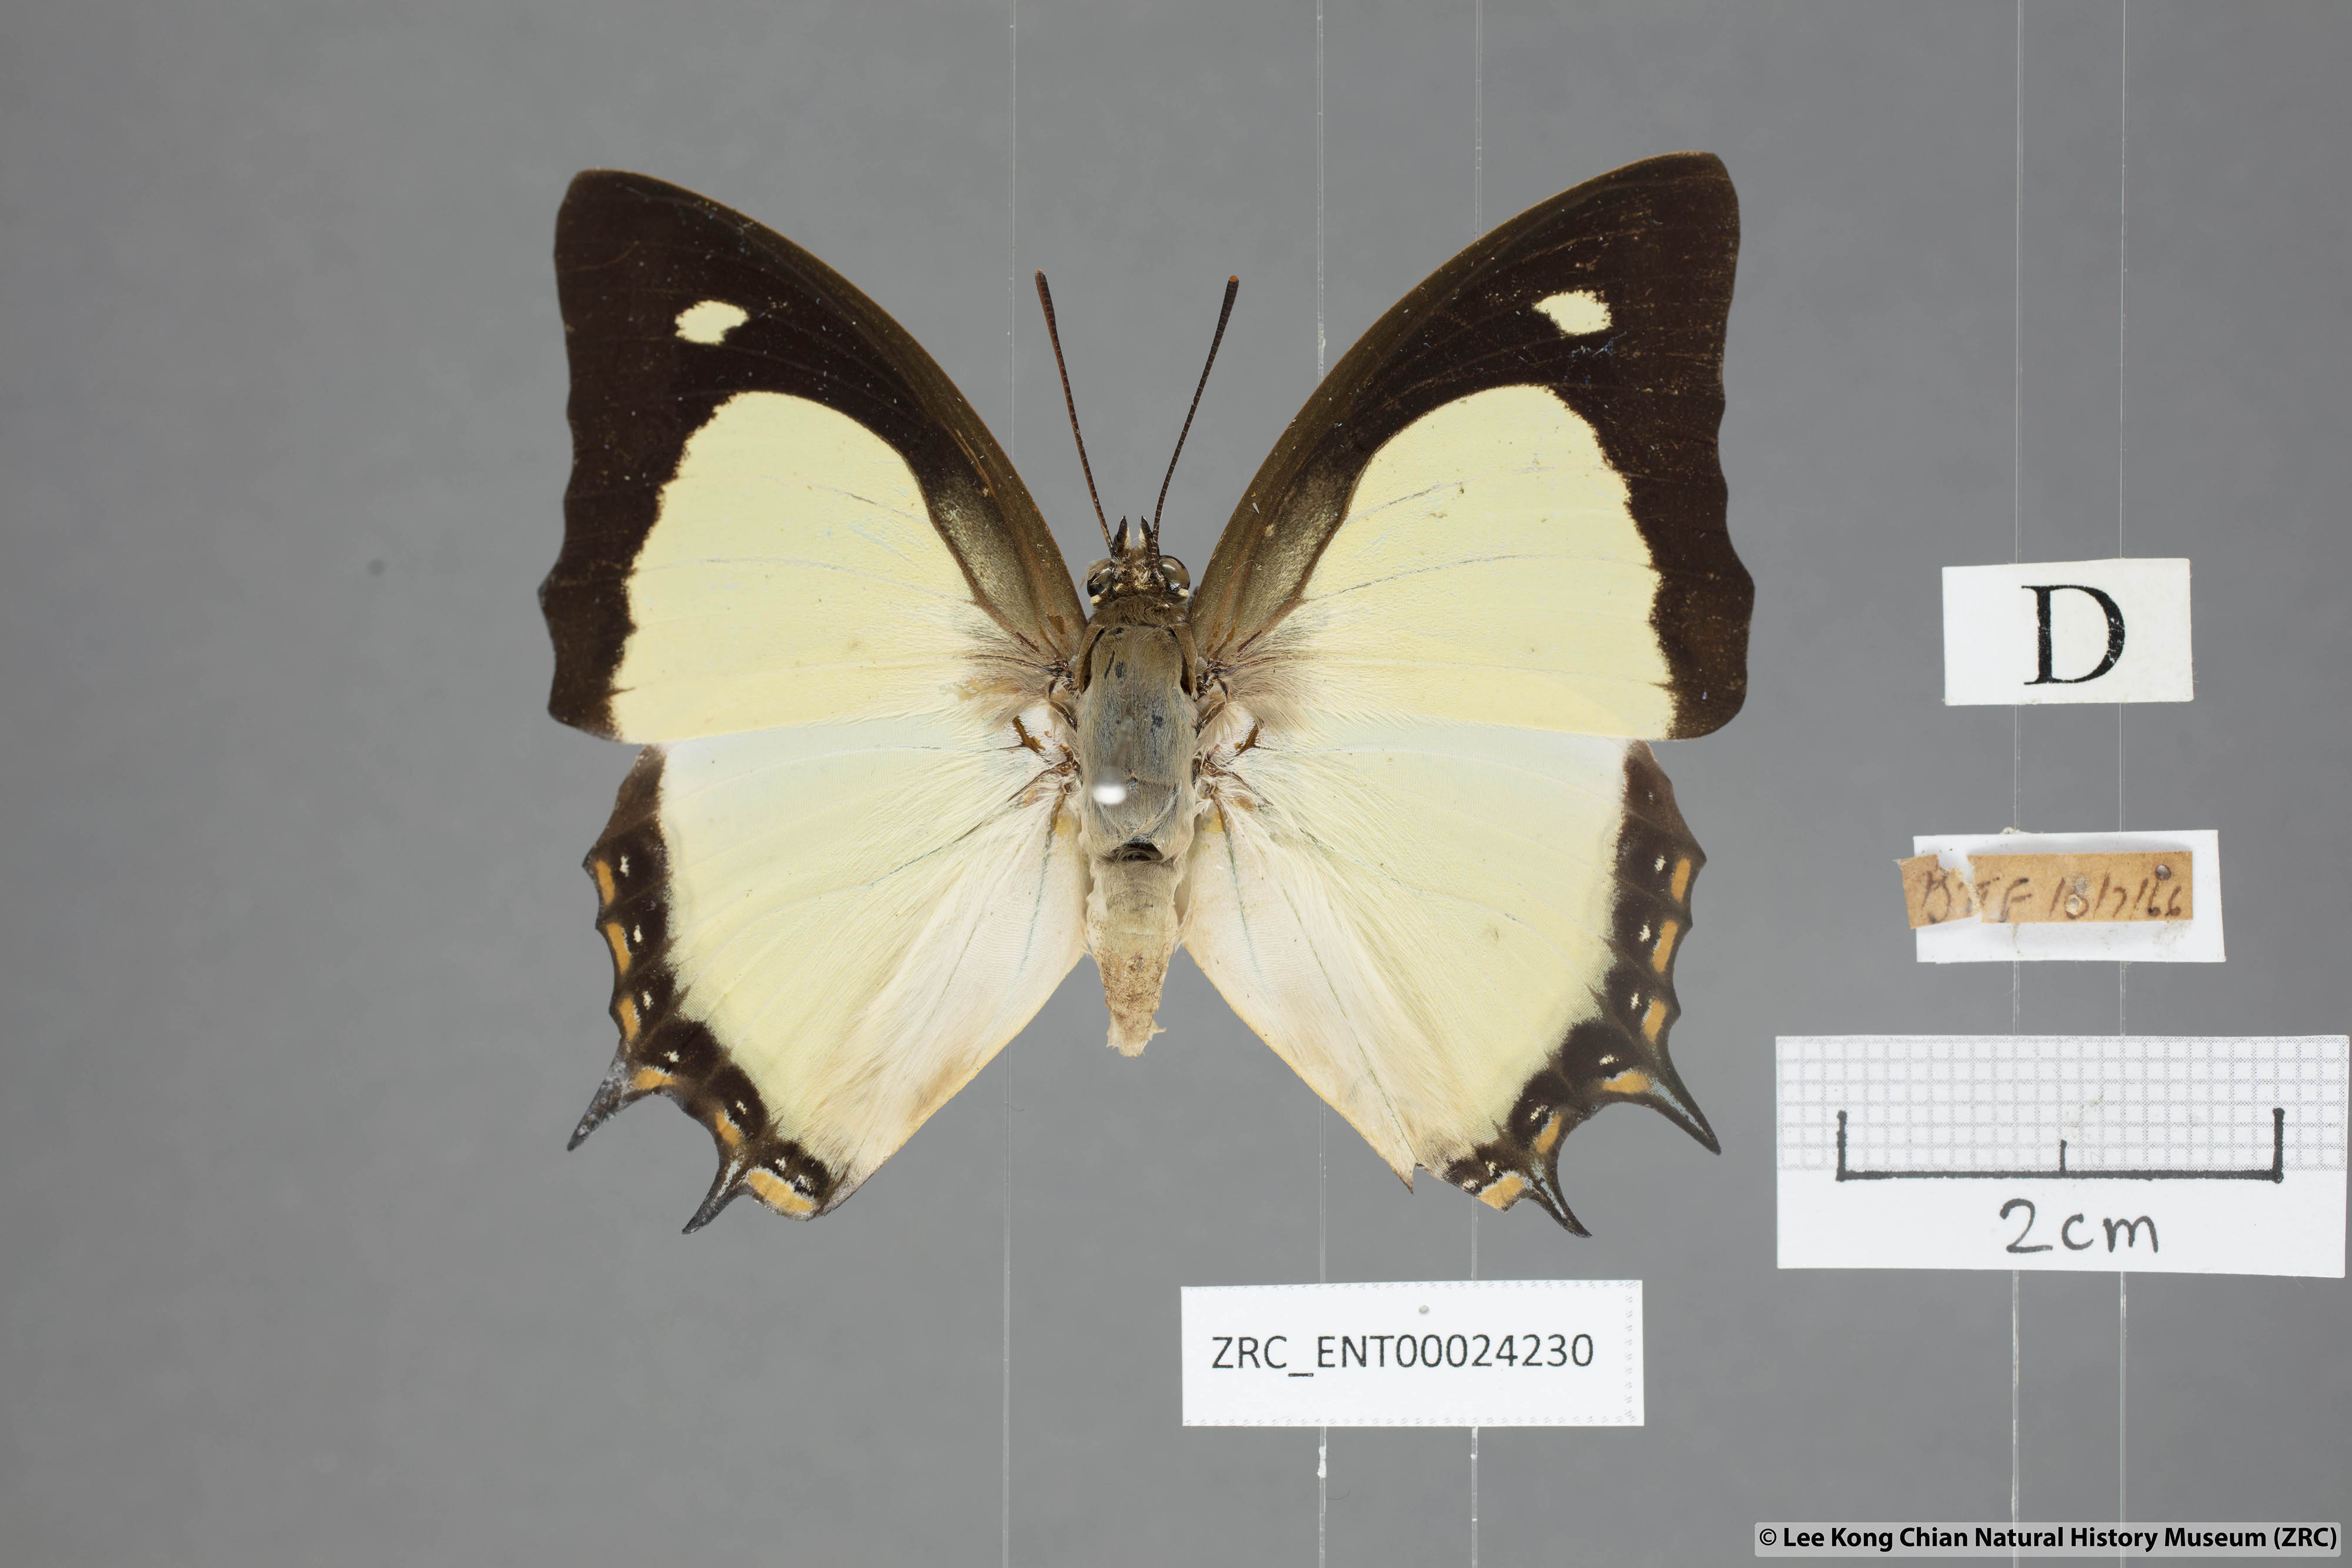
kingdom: Animalia
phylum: Arthropoda
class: Insecta
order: Lepidoptera
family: Nymphalidae
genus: Polyura
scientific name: Polyura jalysus
